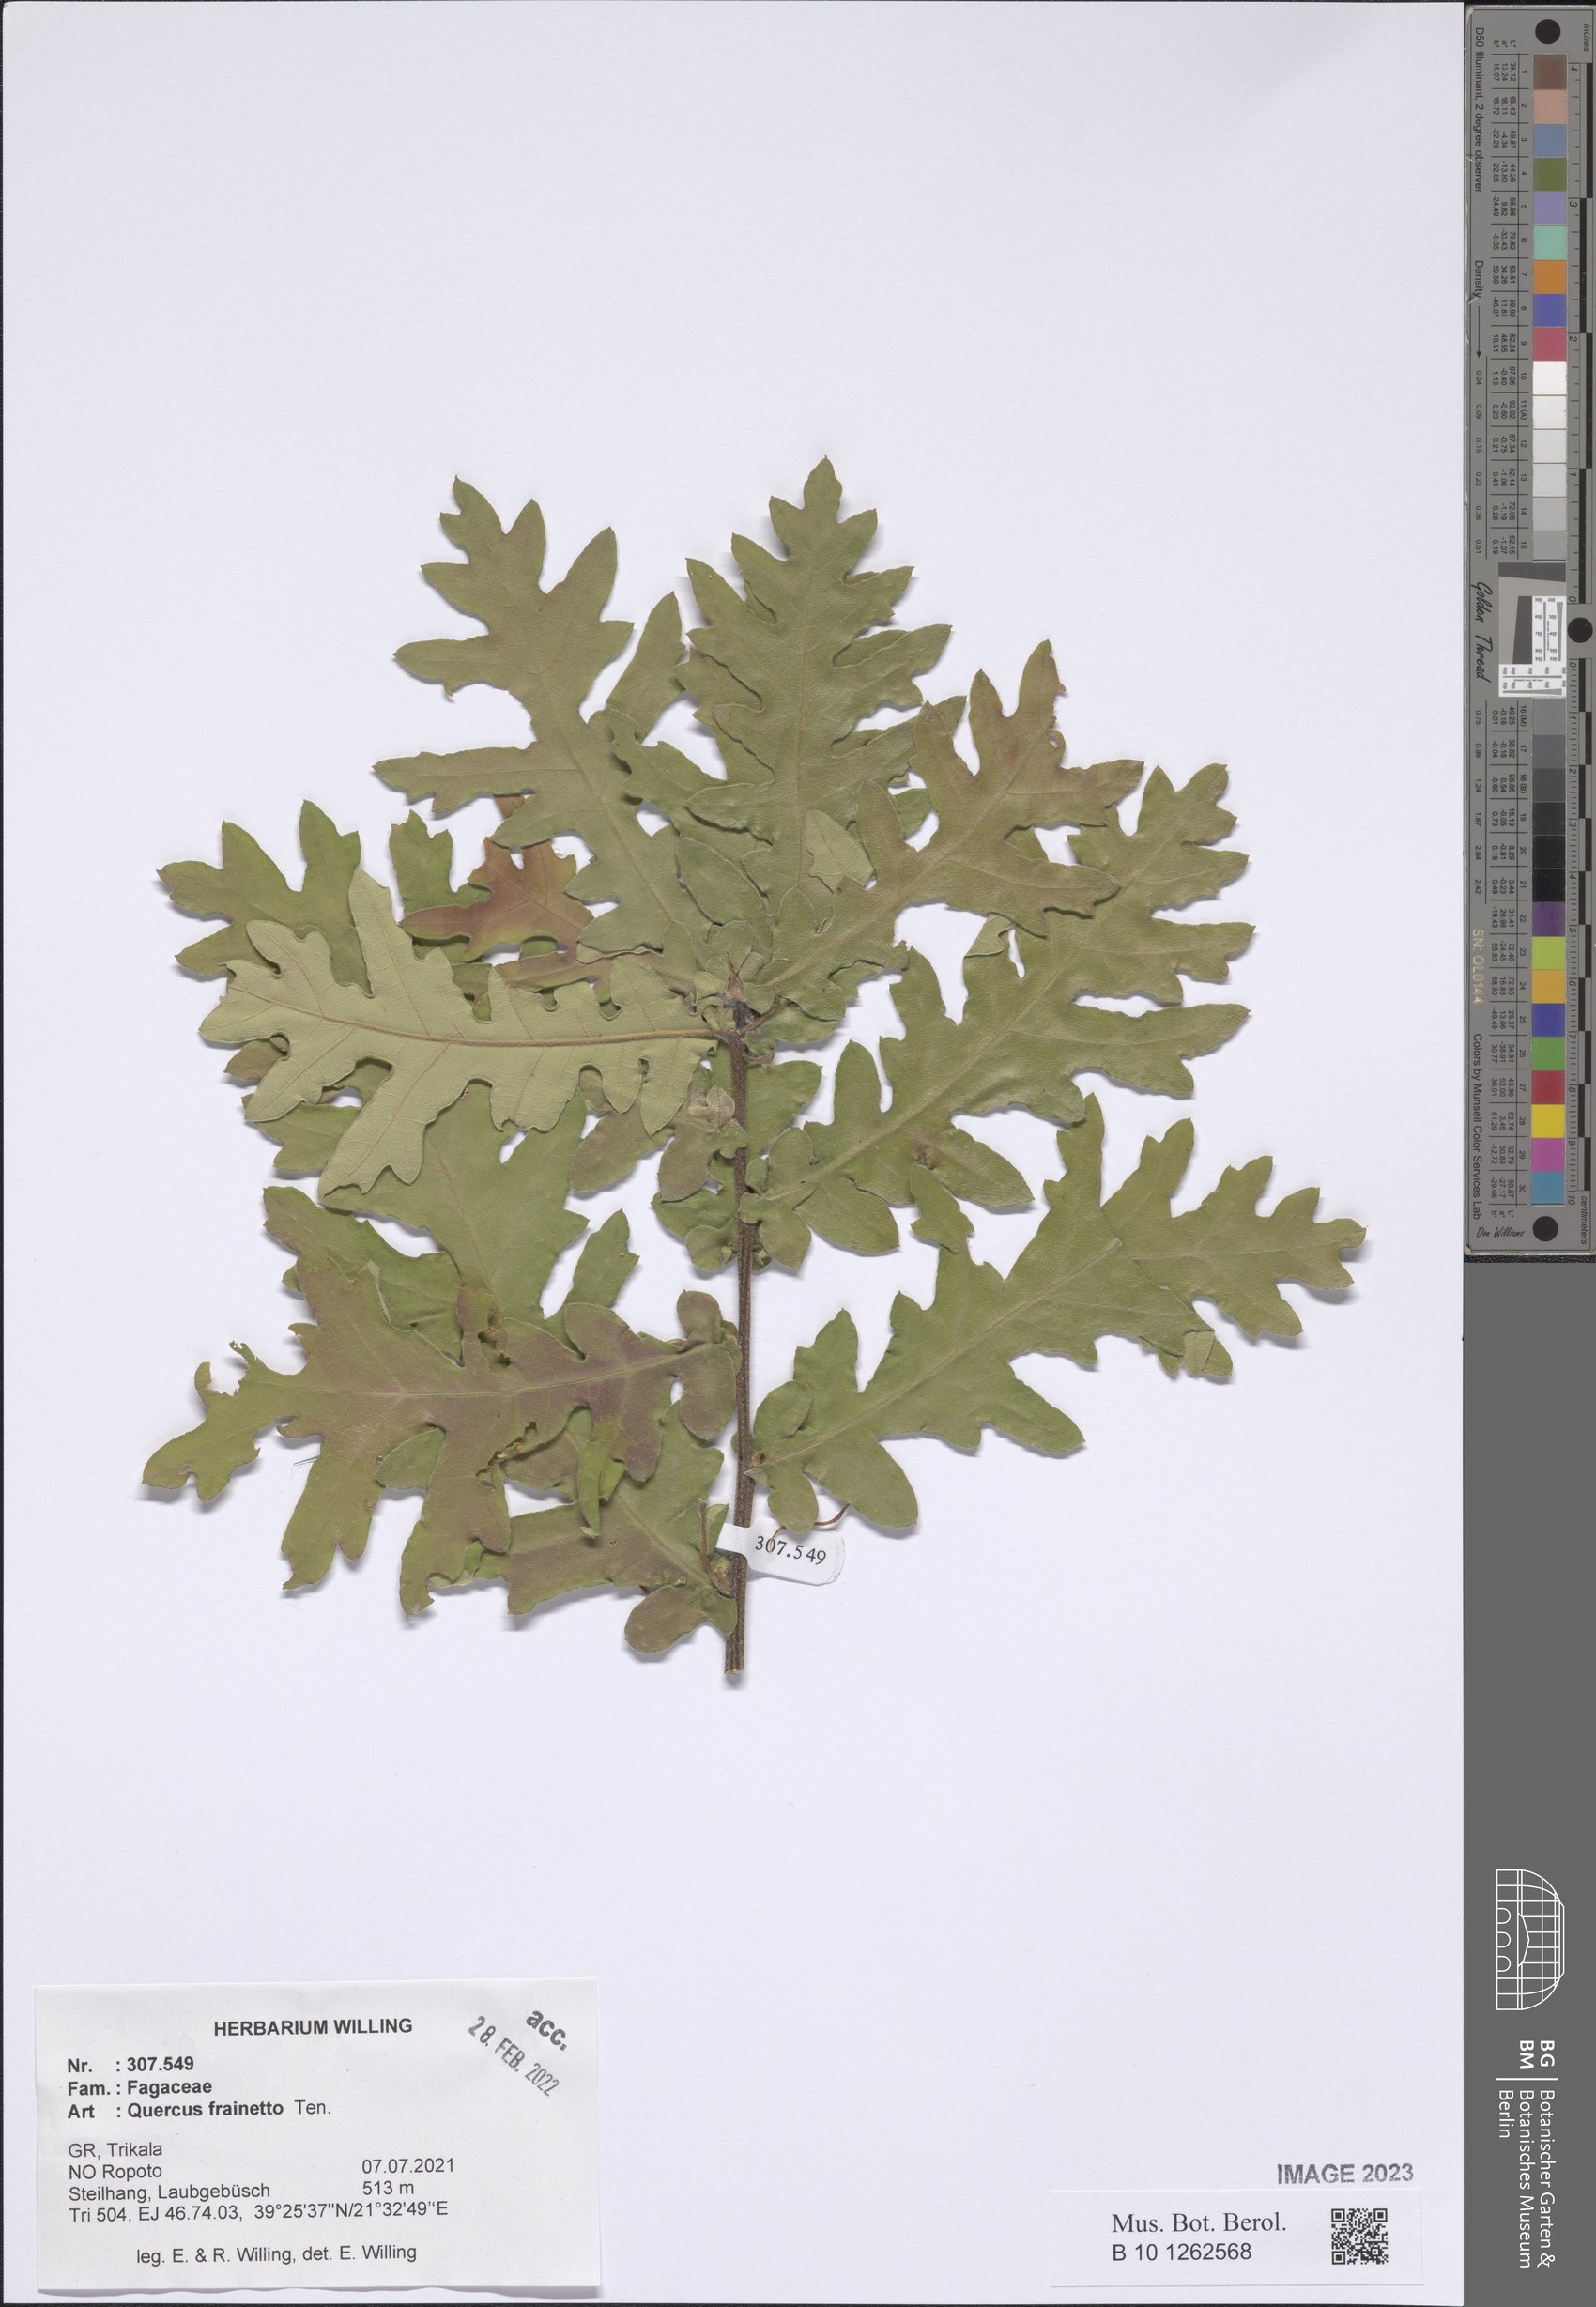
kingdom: Plantae
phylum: Tracheophyta
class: Magnoliopsida
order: Fagales
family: Fagaceae
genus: Quercus
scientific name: Quercus conferta
